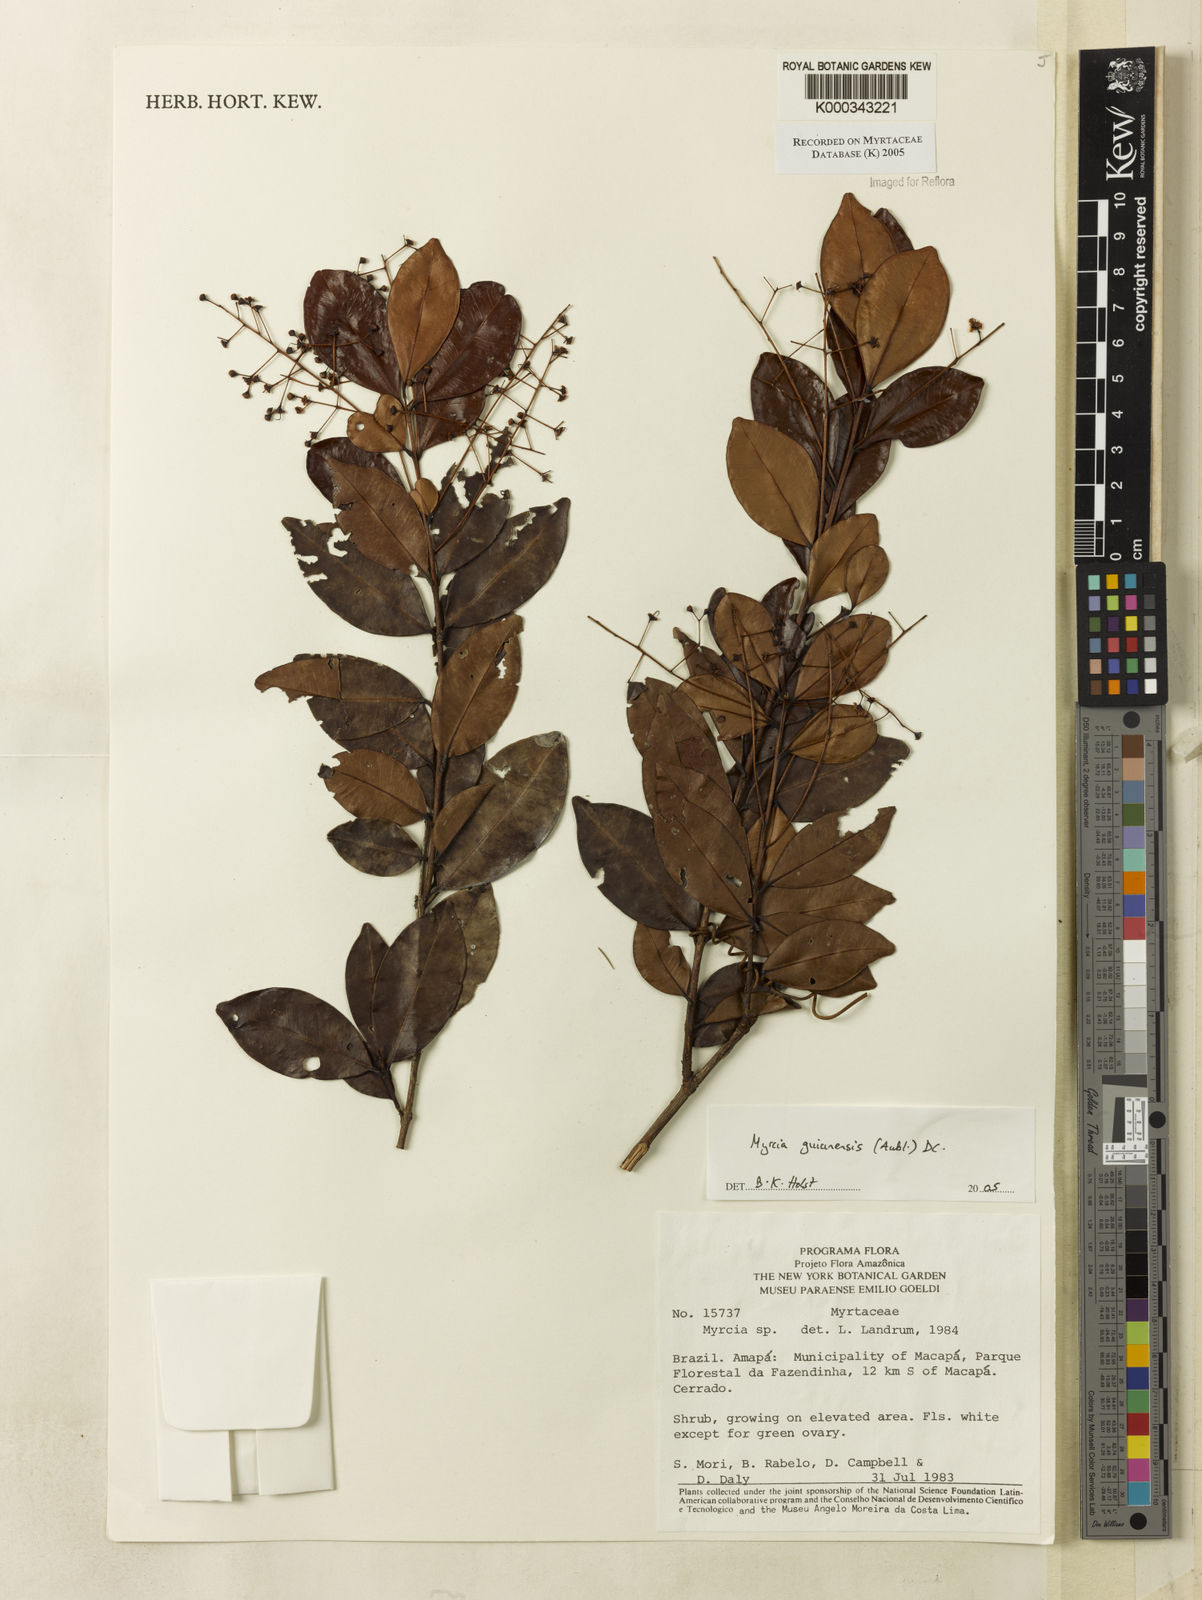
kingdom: Plantae
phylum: Tracheophyta
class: Magnoliopsida
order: Myrtales
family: Myrtaceae
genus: Myrcia
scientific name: Myrcia guianensis
